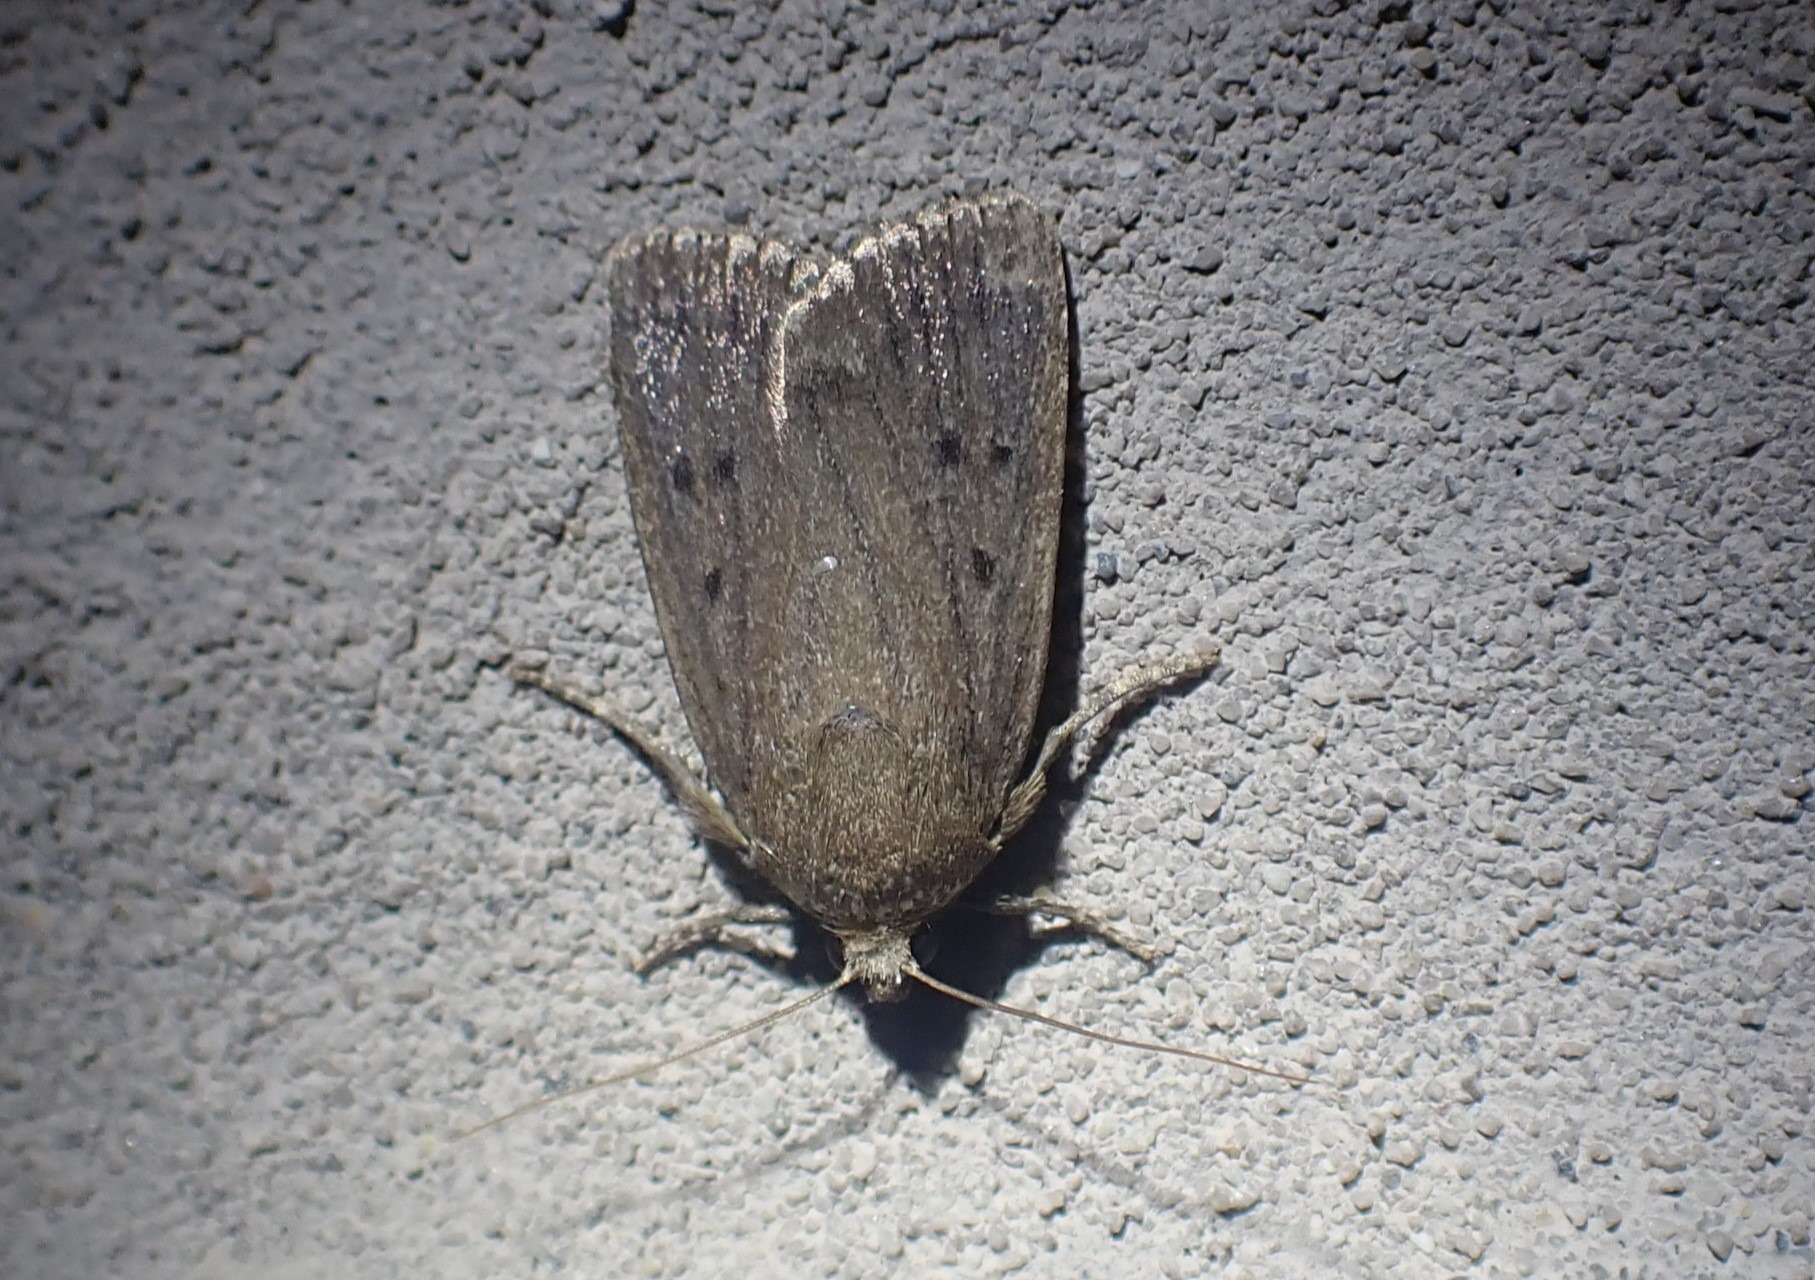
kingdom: Animalia
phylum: Arthropoda
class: Insecta
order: Lepidoptera
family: Noctuidae
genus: Amphipyra
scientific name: Amphipyra tragopoginis
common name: Blyantsugle
